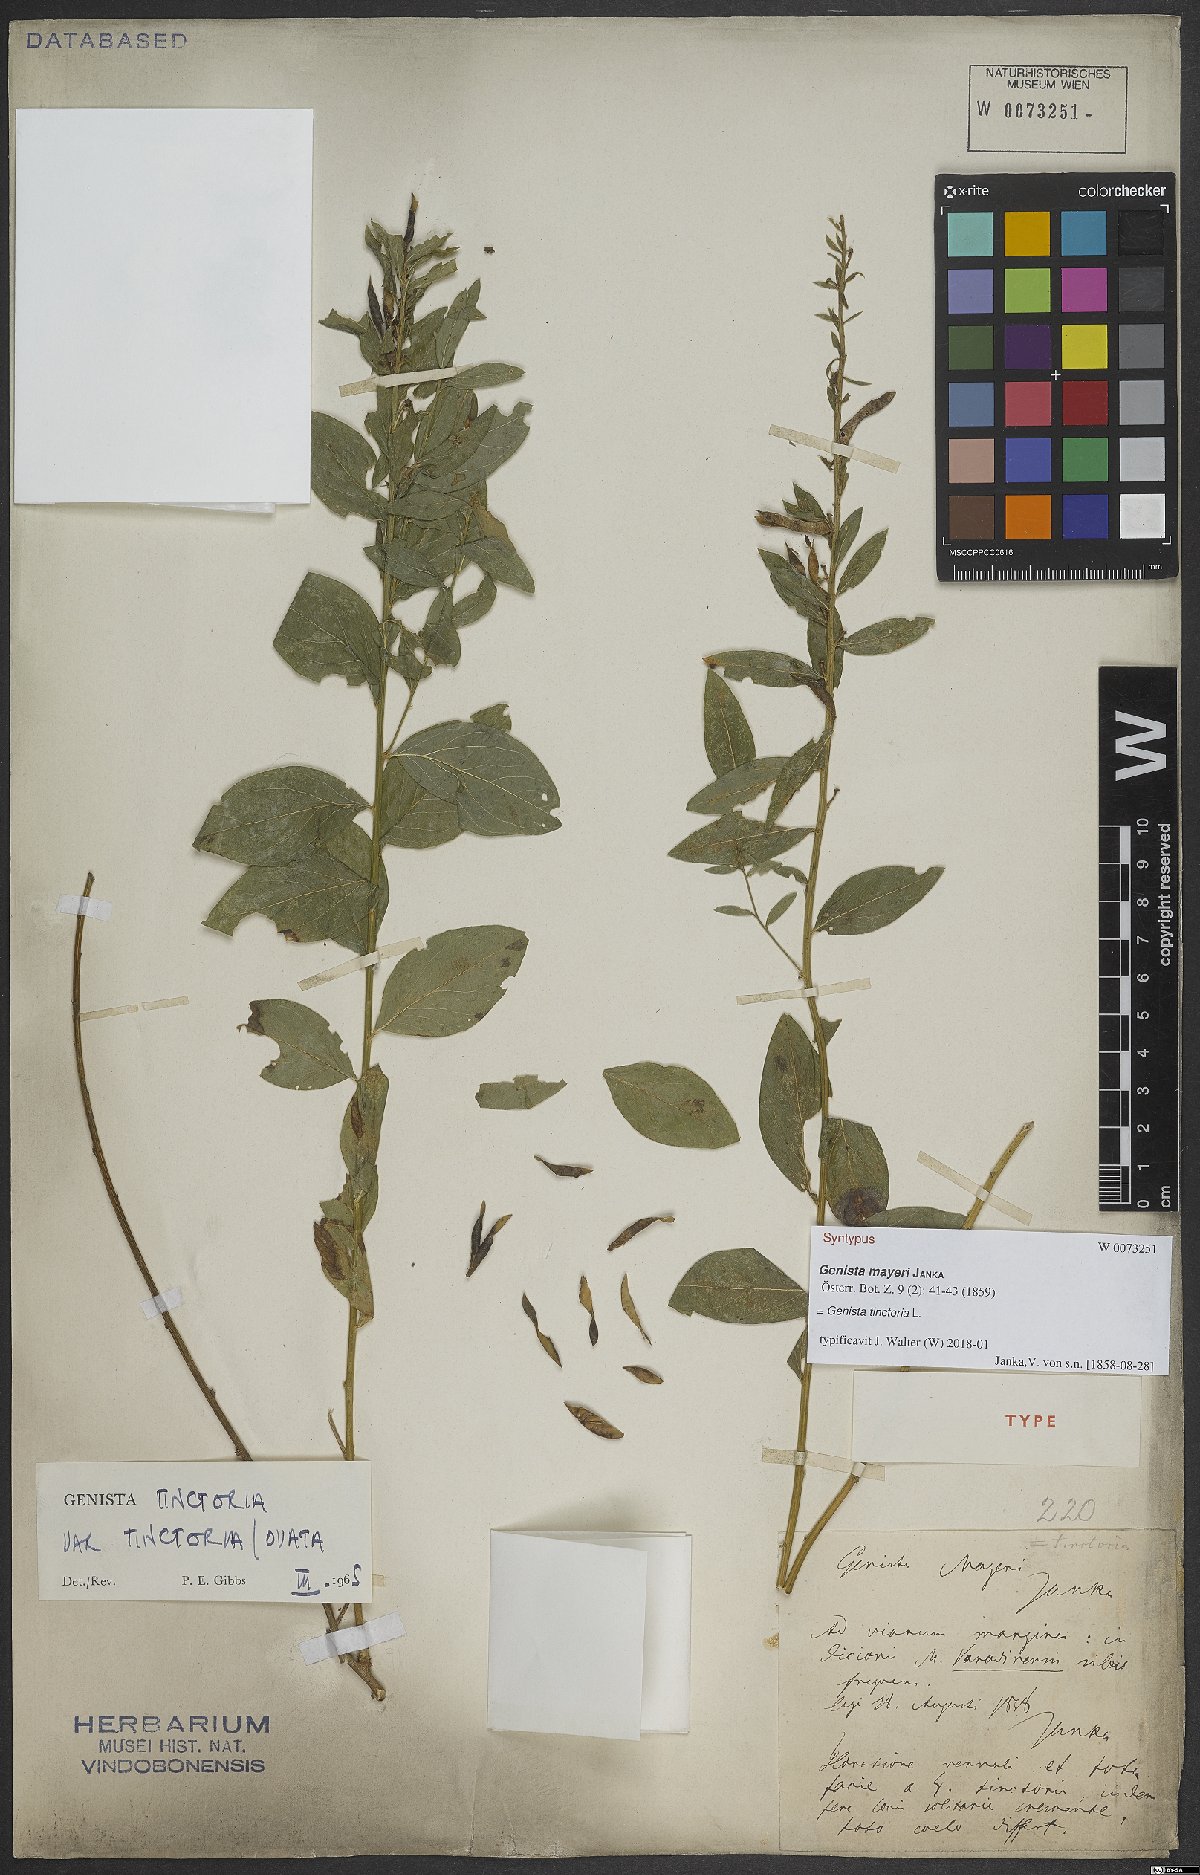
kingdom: Plantae
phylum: Tracheophyta
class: Magnoliopsida
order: Fabales
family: Fabaceae
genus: Genista
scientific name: Genista tinctoria
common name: Dyer's greenweed
